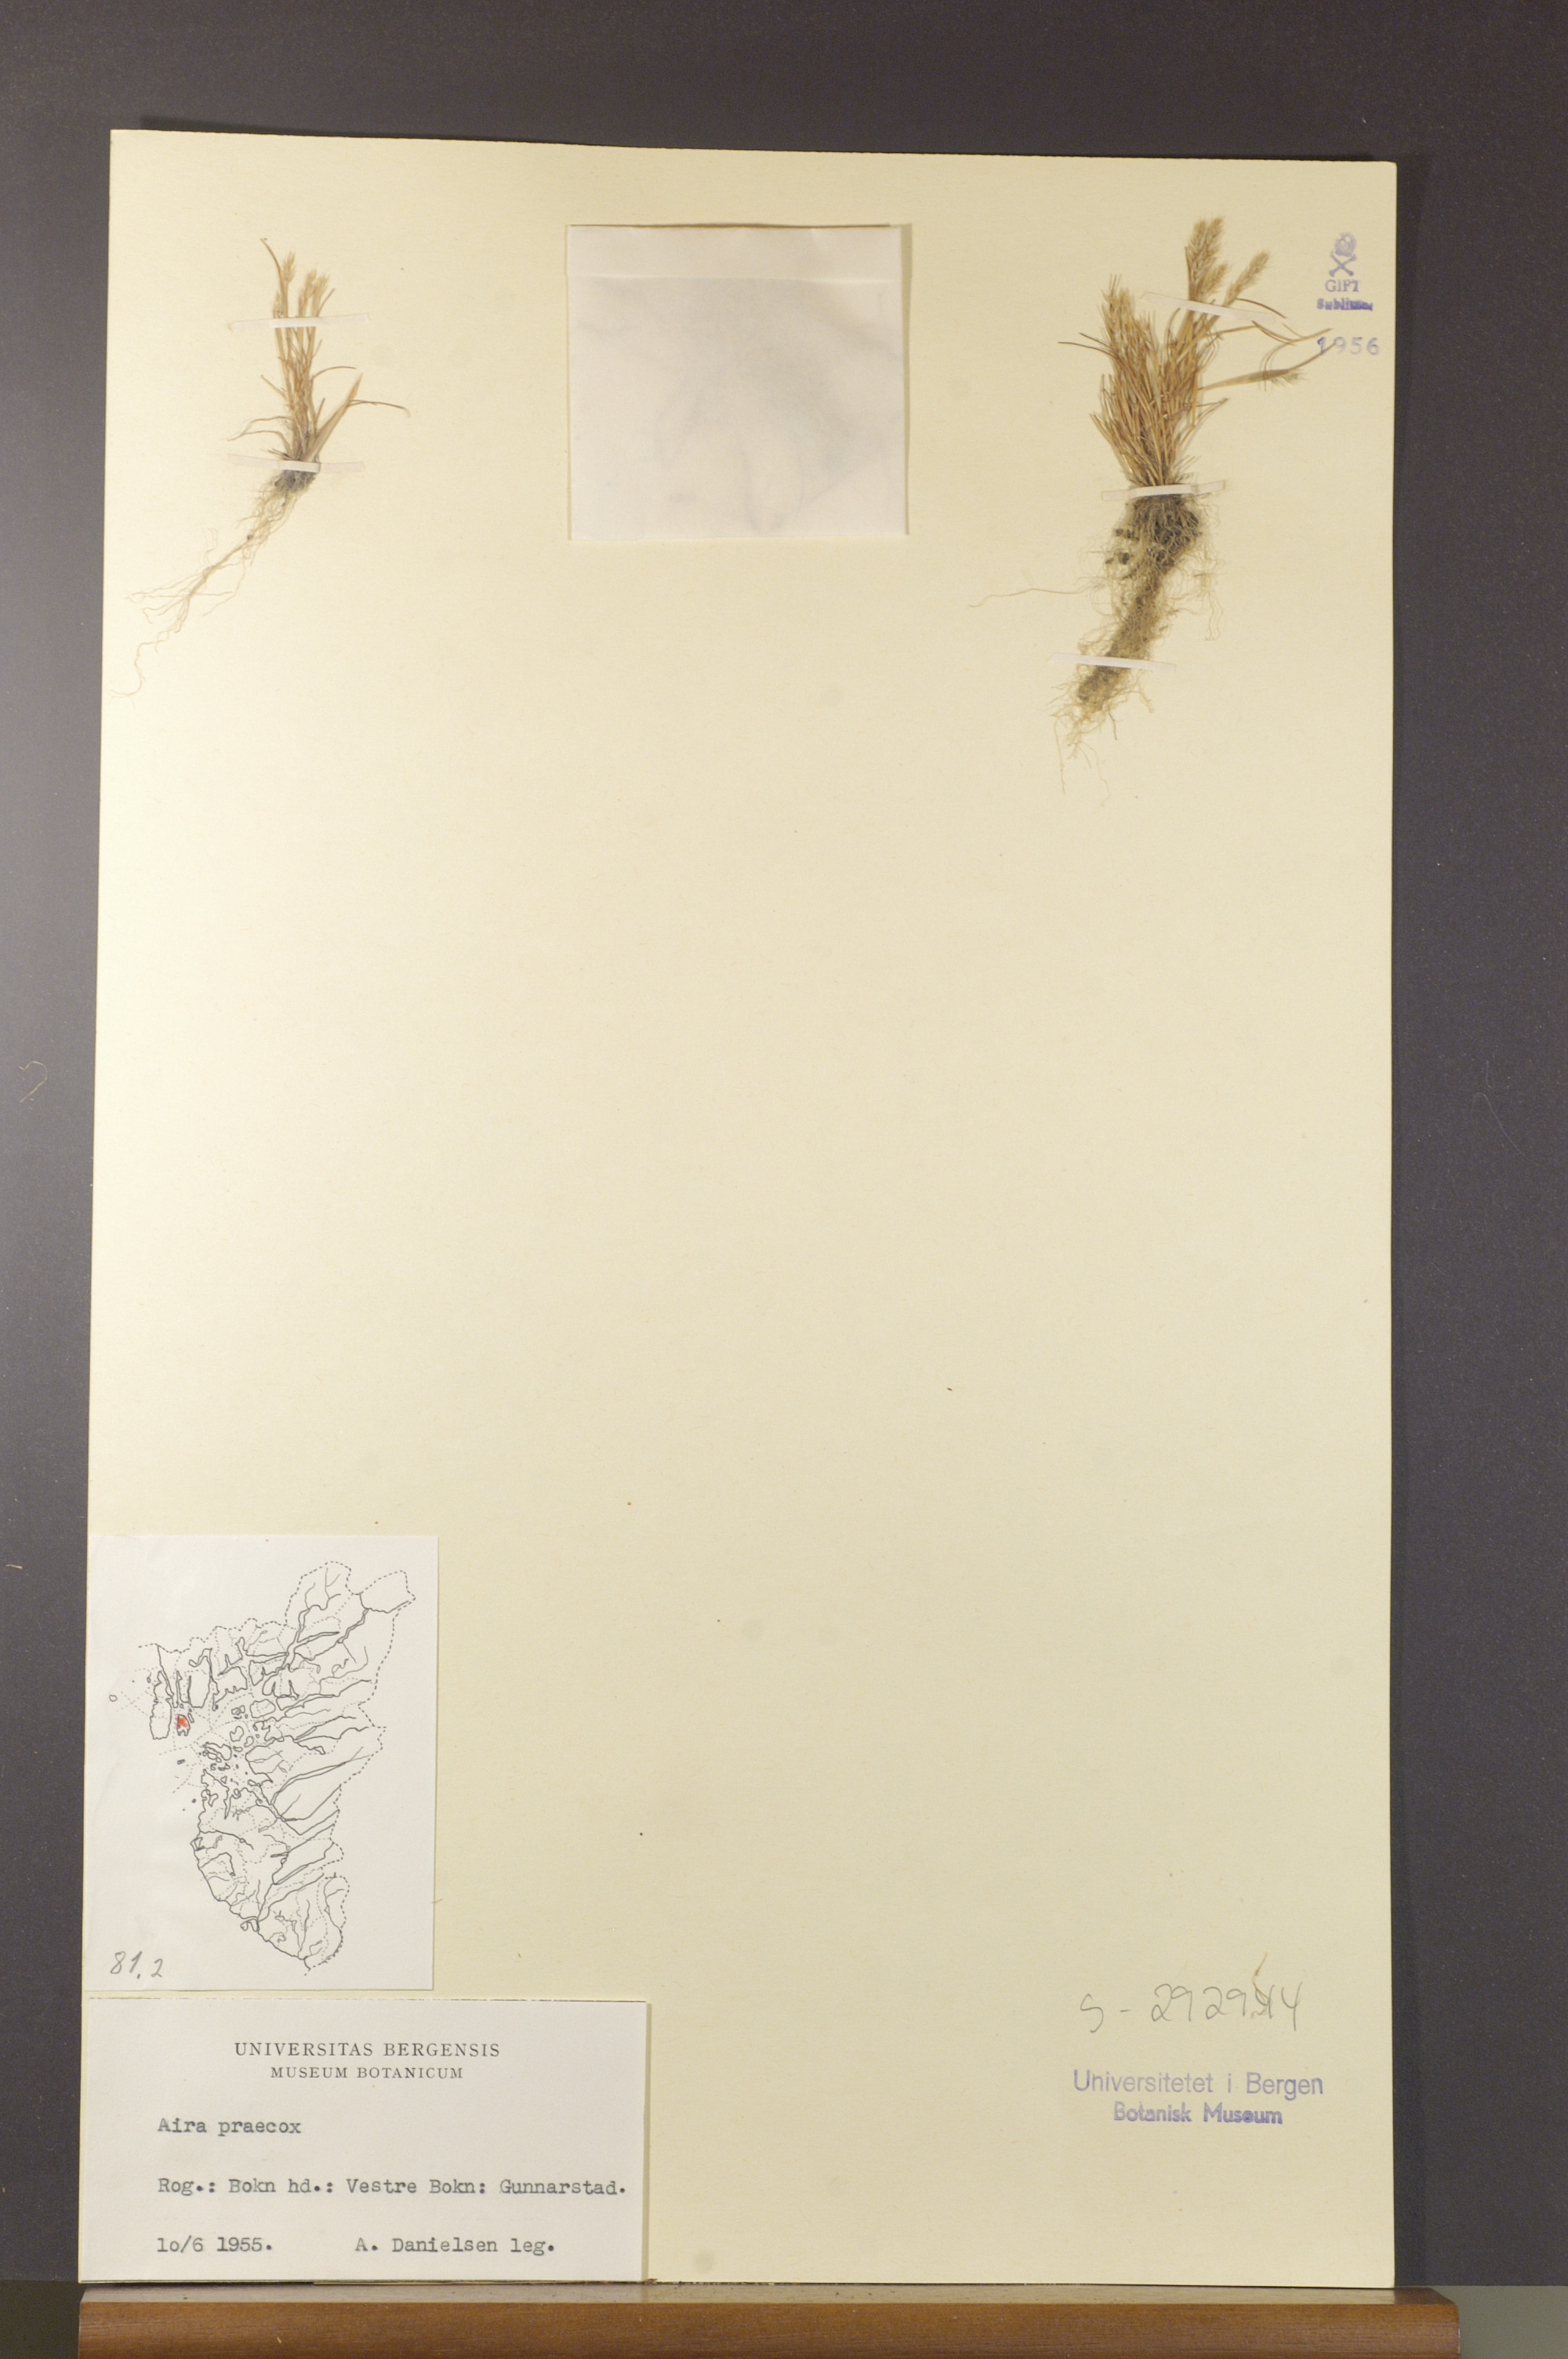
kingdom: Plantae
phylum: Tracheophyta
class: Liliopsida
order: Poales
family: Poaceae
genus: Aira
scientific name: Aira praecox
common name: Early hair-grass
